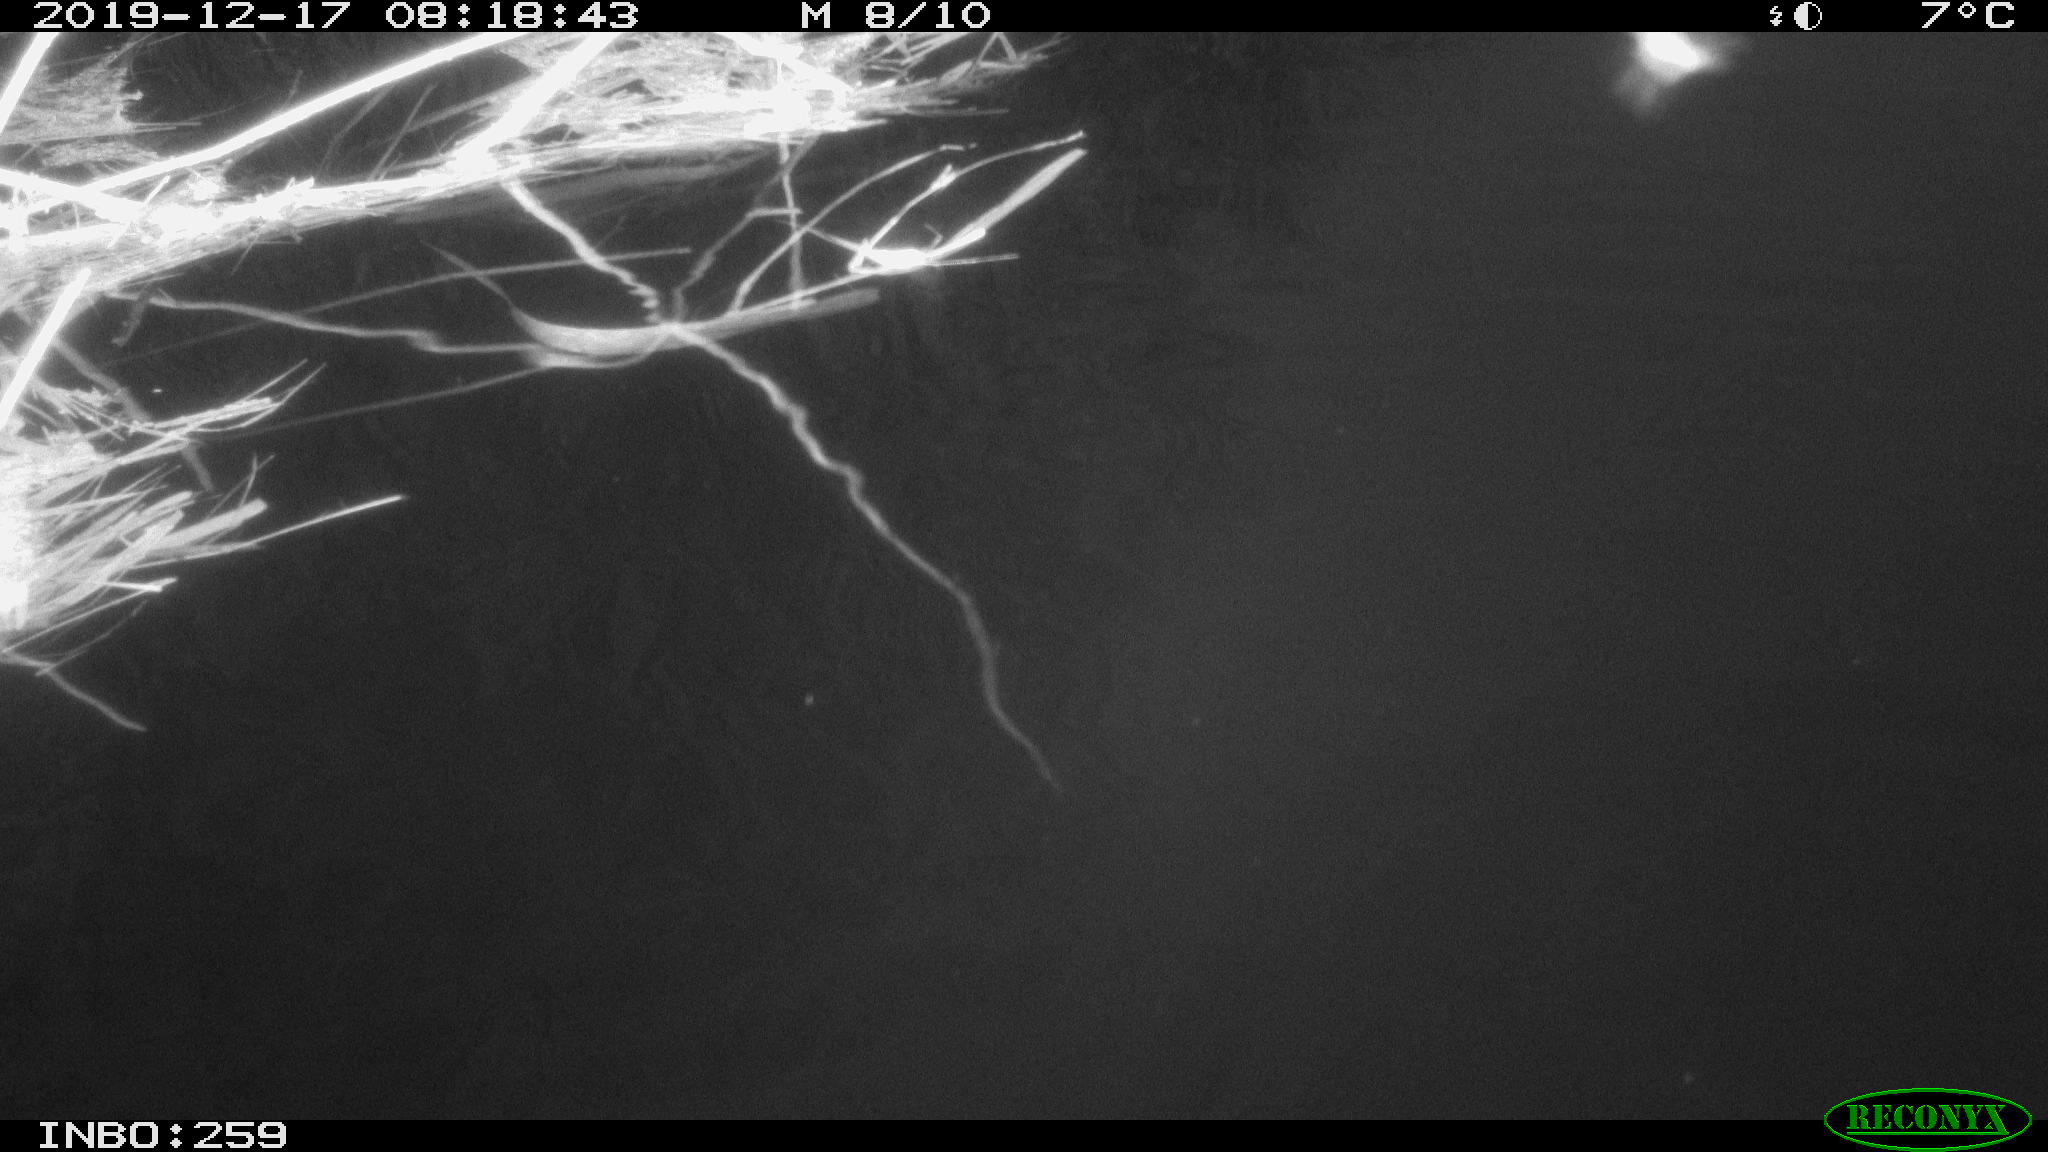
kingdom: Animalia
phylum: Chordata
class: Aves
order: Gruiformes
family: Rallidae
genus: Gallinula
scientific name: Gallinula chloropus
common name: Common moorhen
